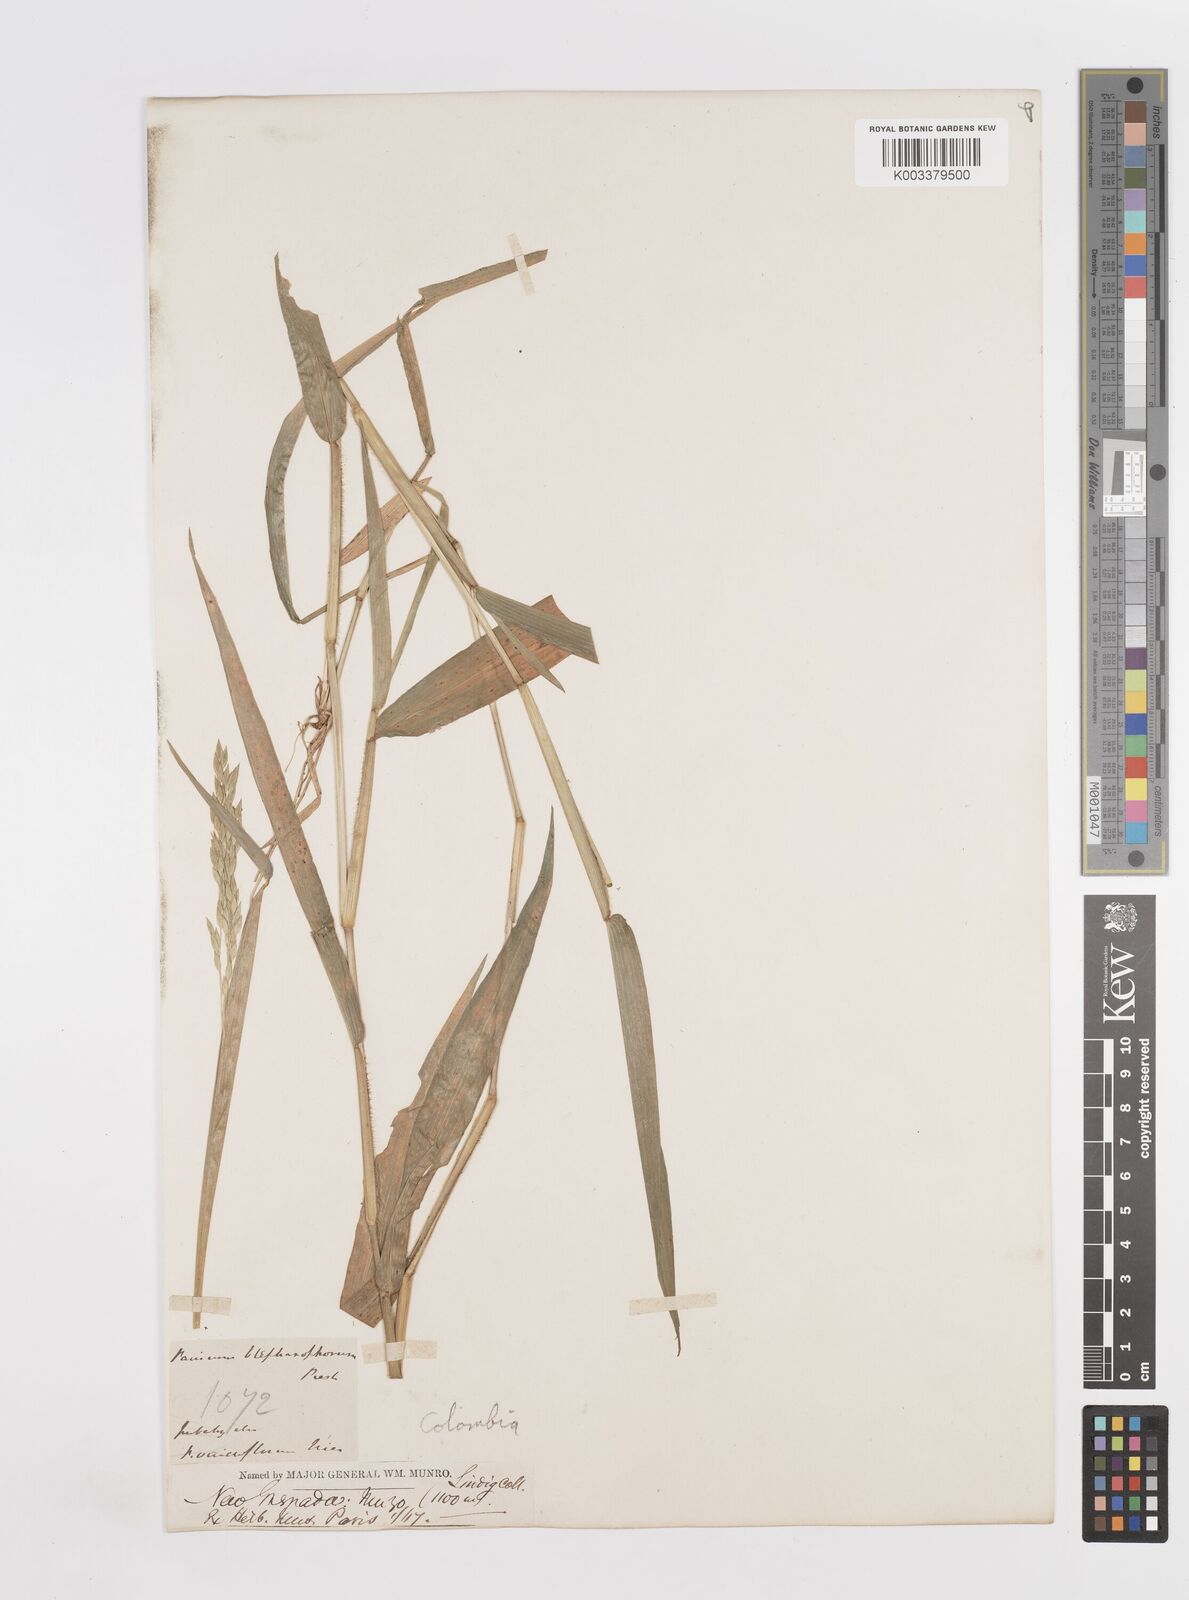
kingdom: Plantae
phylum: Tracheophyta
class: Liliopsida
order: Poales
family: Poaceae
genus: Homolepis
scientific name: Homolepis aturensis
